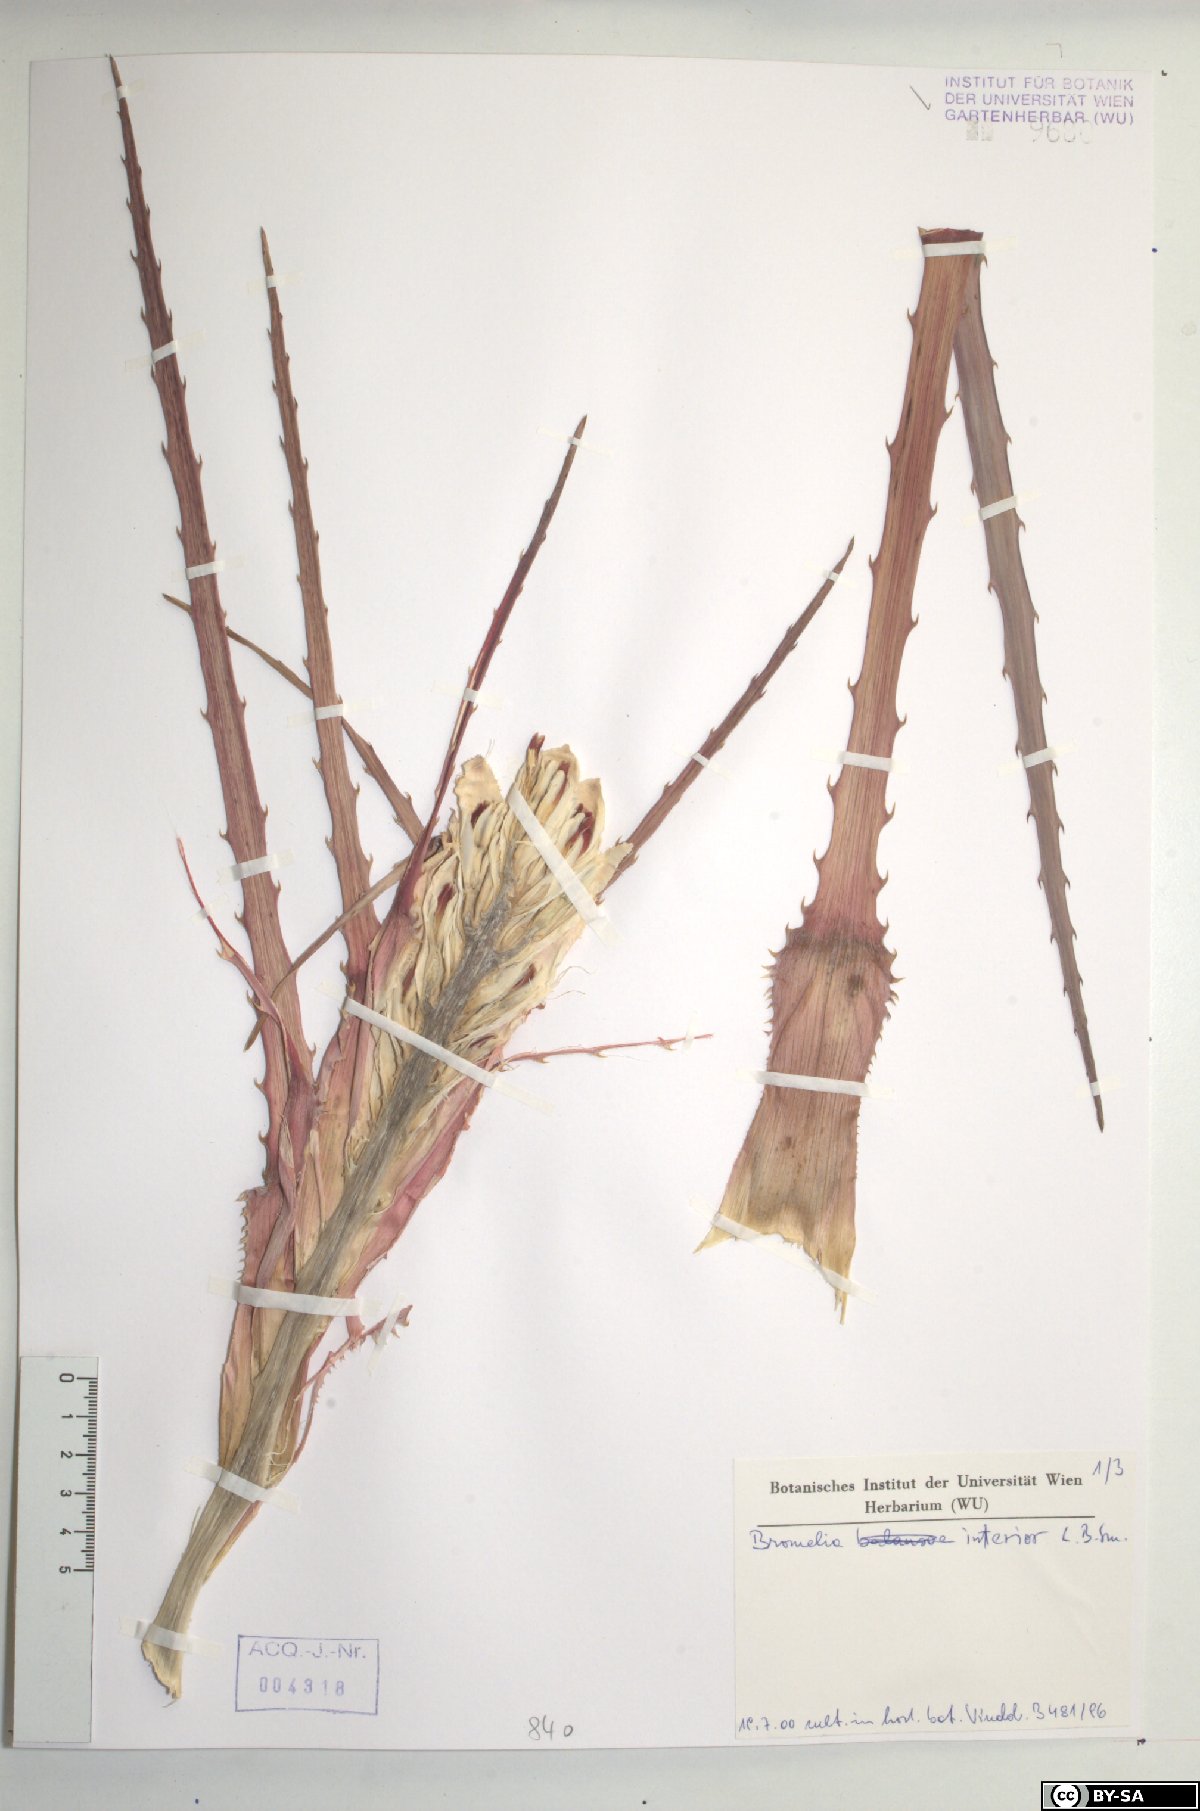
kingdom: Plantae
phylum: Tracheophyta
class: Liliopsida
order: Poales
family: Bromeliaceae
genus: Bromelia
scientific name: Bromelia interior
